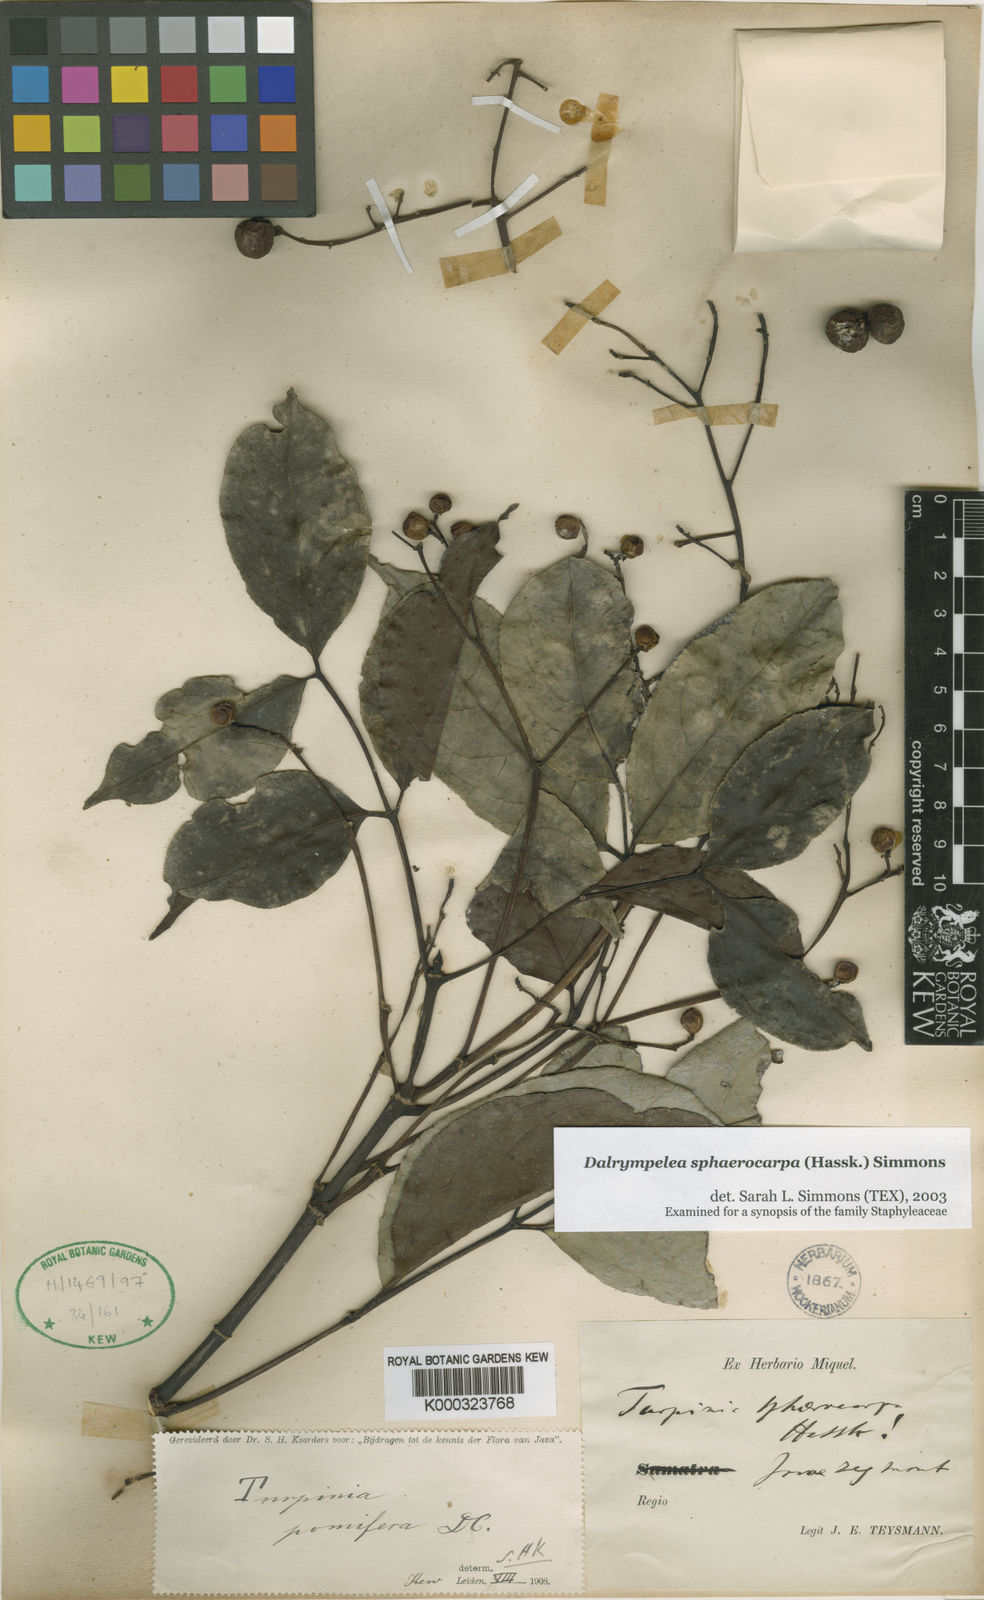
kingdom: Plantae
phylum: Tracheophyta
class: Magnoliopsida
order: Crossosomatales
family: Staphyleaceae
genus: Dalrympelea
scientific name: Dalrympelea sphaerocarpa
